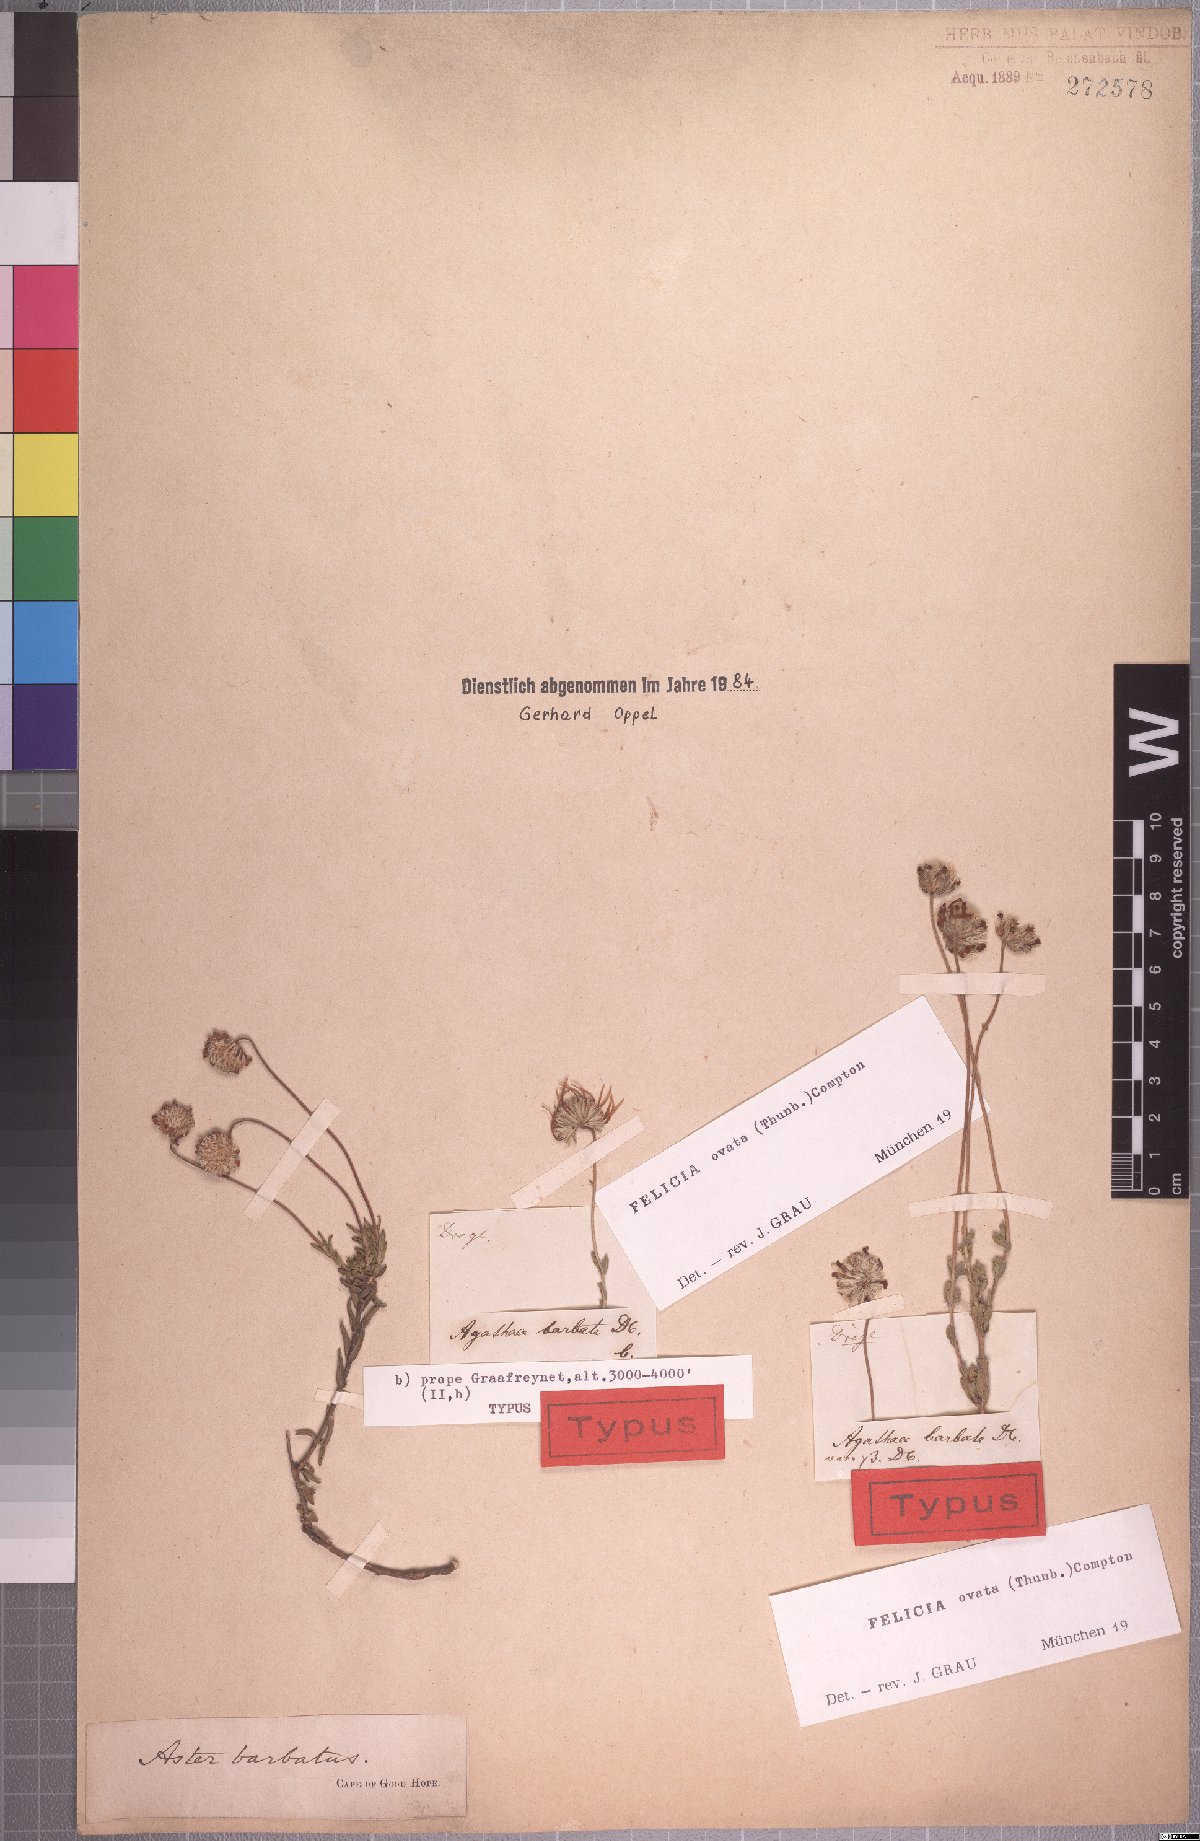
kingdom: Plantae
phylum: Tracheophyta
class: Magnoliopsida
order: Asterales
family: Asteraceae
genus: Felicia
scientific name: Felicia ovata
